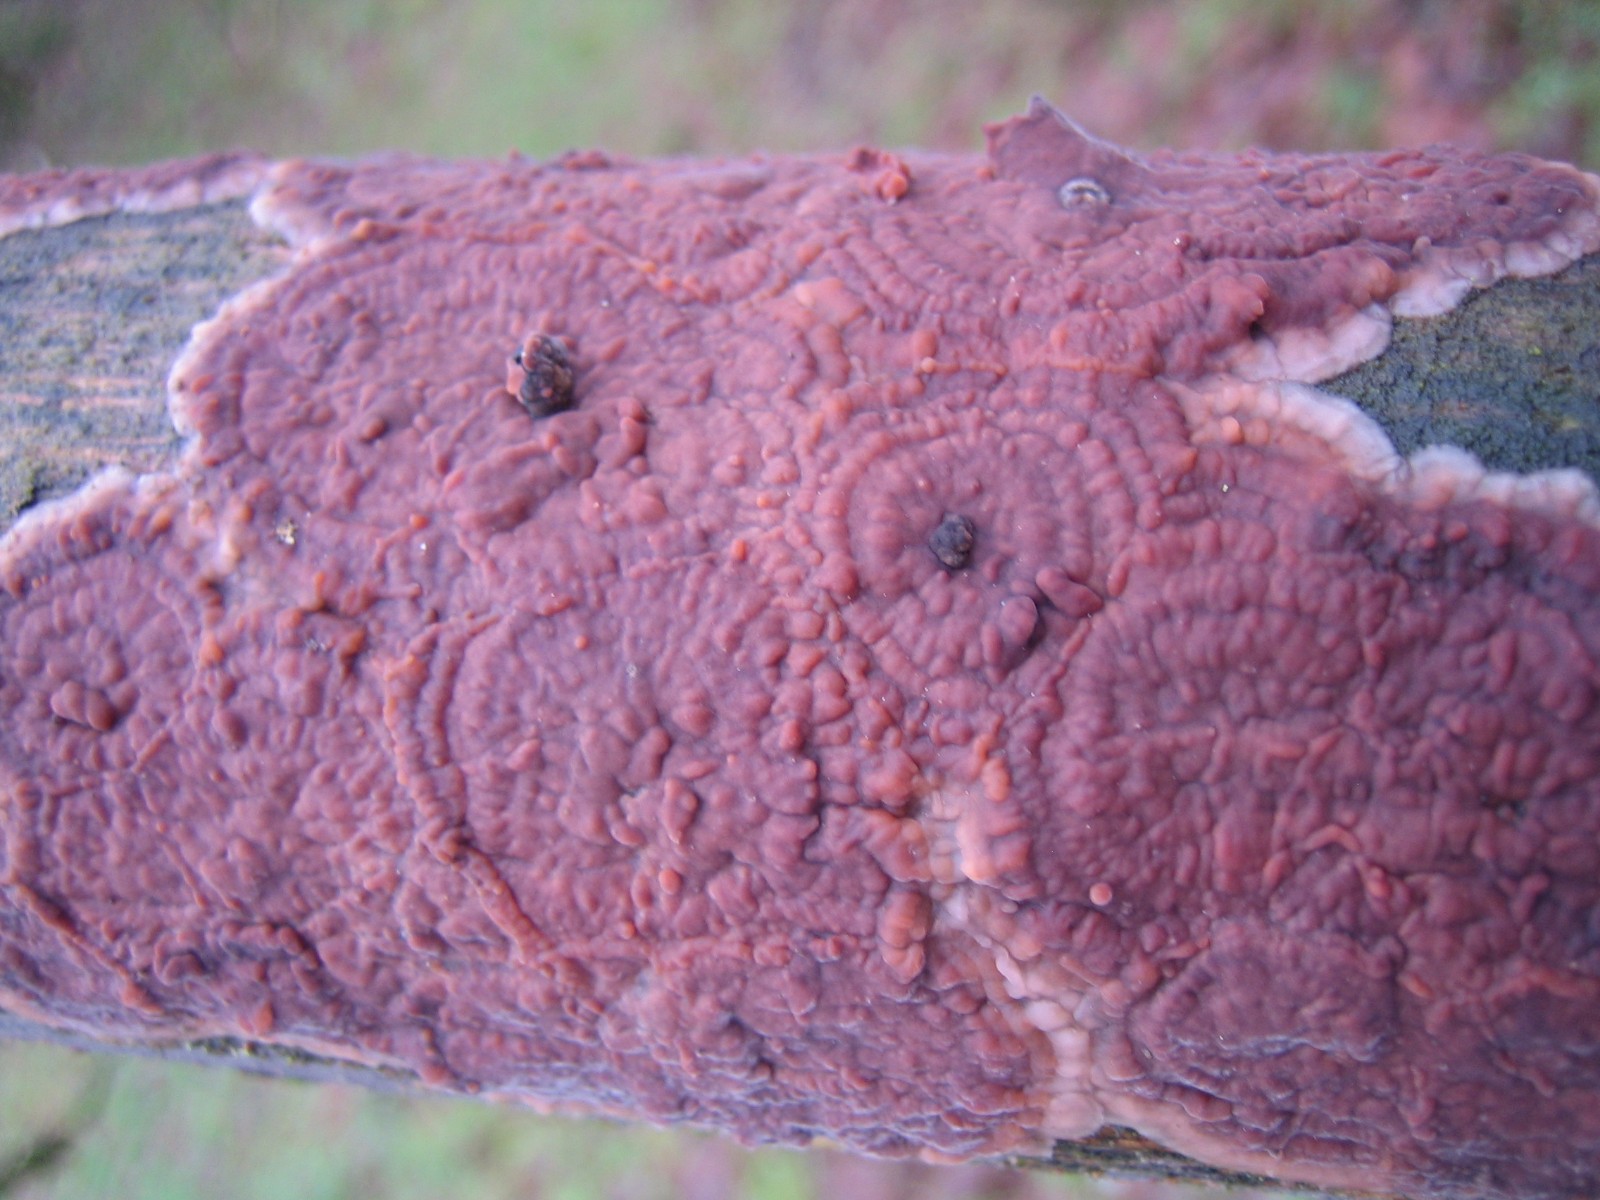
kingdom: Fungi
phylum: Basidiomycota
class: Agaricomycetes
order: Polyporales
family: Meruliaceae
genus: Phlebia
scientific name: Phlebia radiata
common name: stråle-åresvamp
